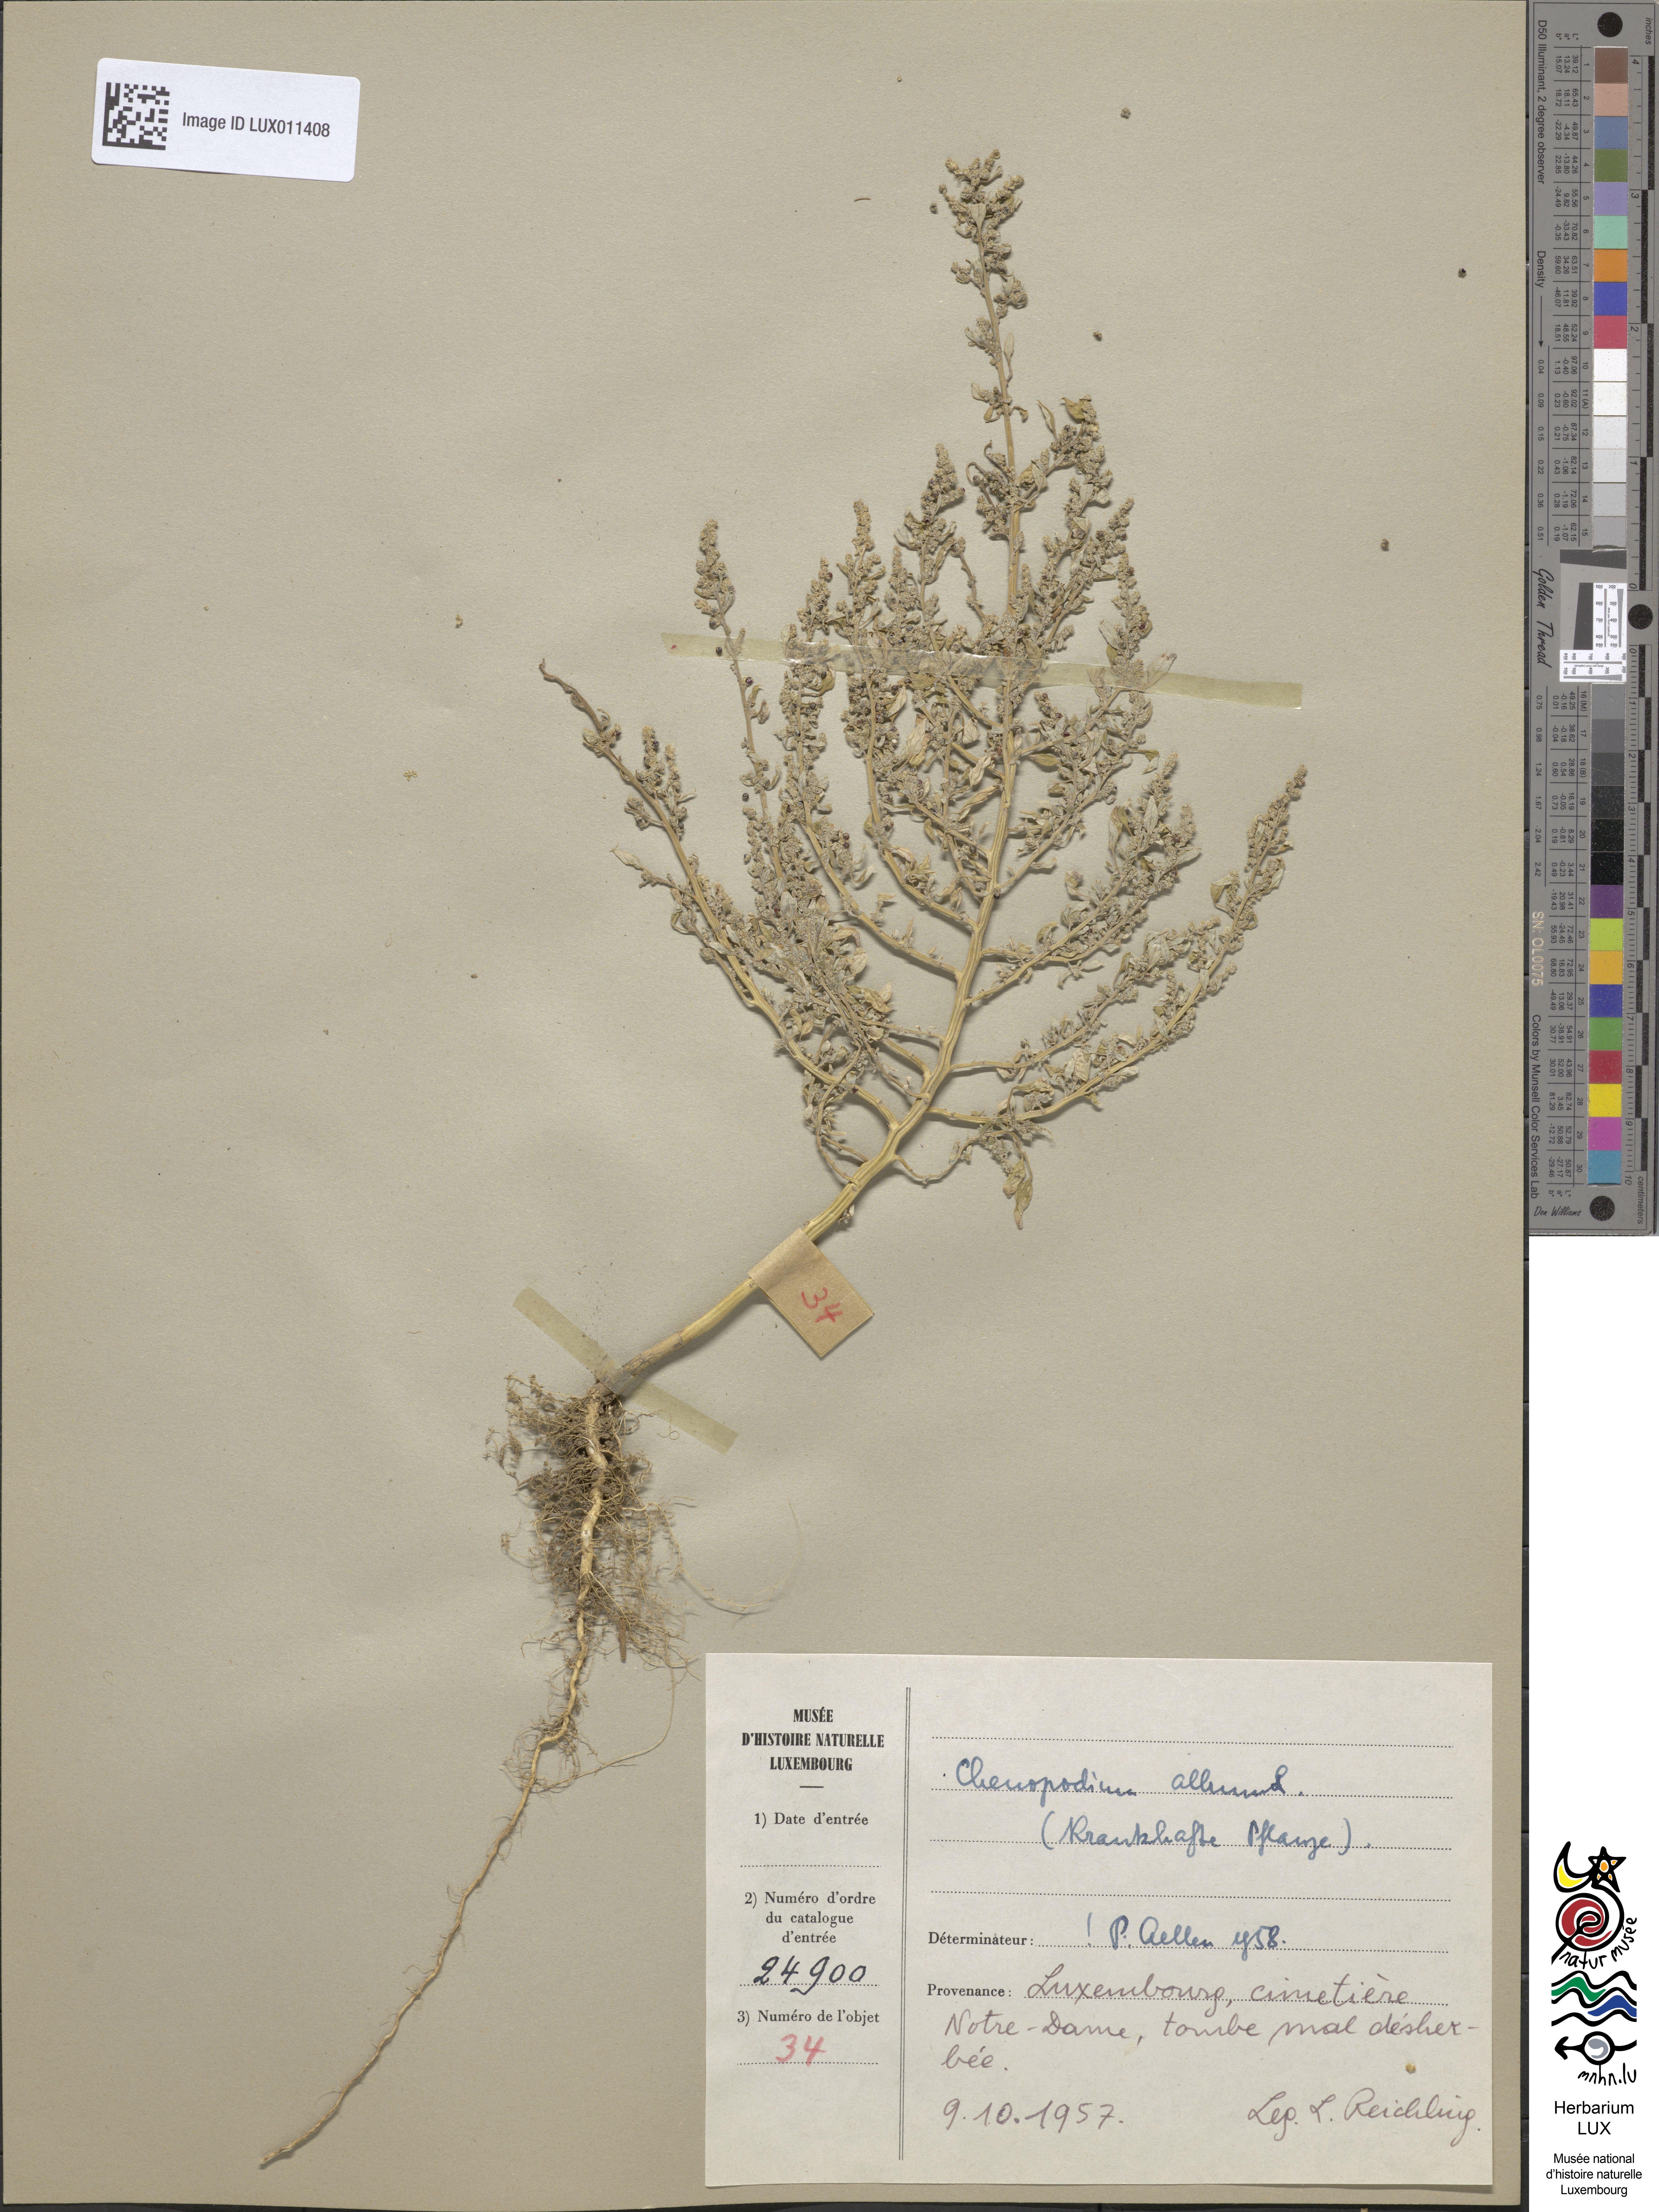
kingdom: Plantae
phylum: Tracheophyta
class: Magnoliopsida
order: Caryophyllales
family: Amaranthaceae
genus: Chenopodium
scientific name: Chenopodium album
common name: Fat-hen
